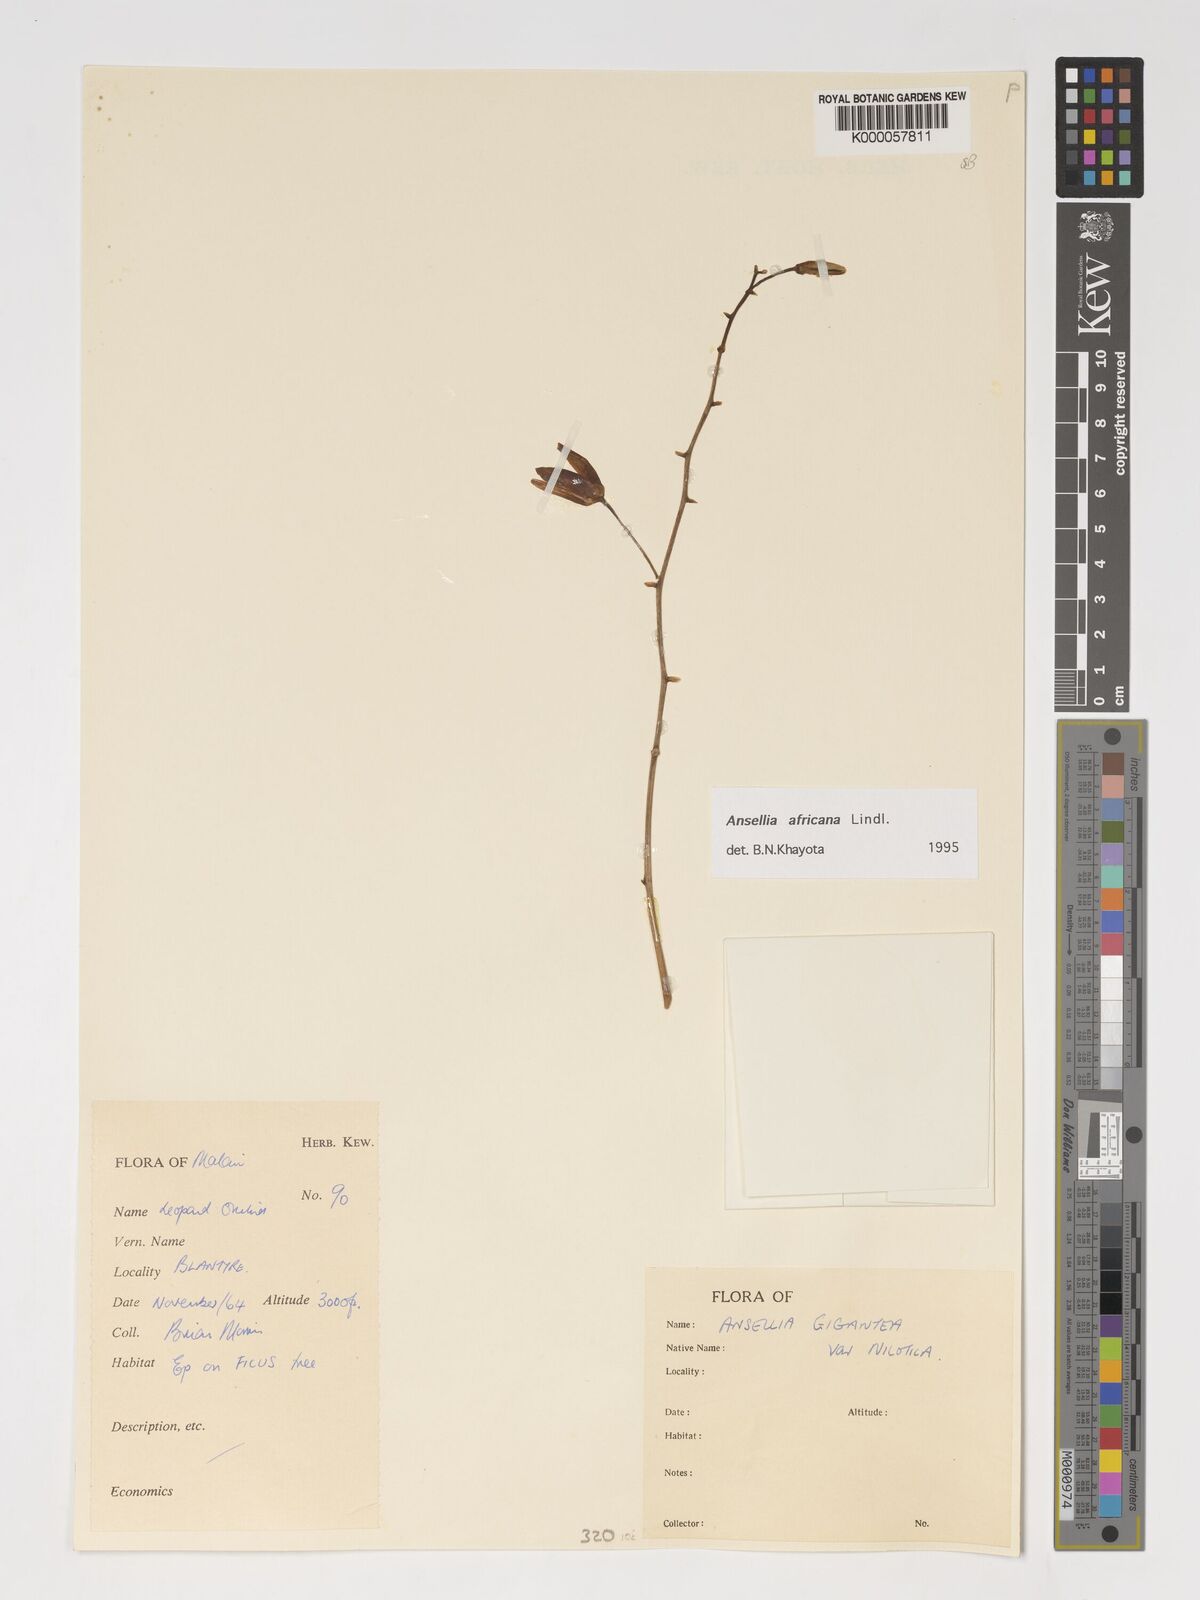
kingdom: Plantae
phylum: Tracheophyta
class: Liliopsida
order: Asparagales
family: Orchidaceae
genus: Ansellia
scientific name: Ansellia africana
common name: African ansellia
